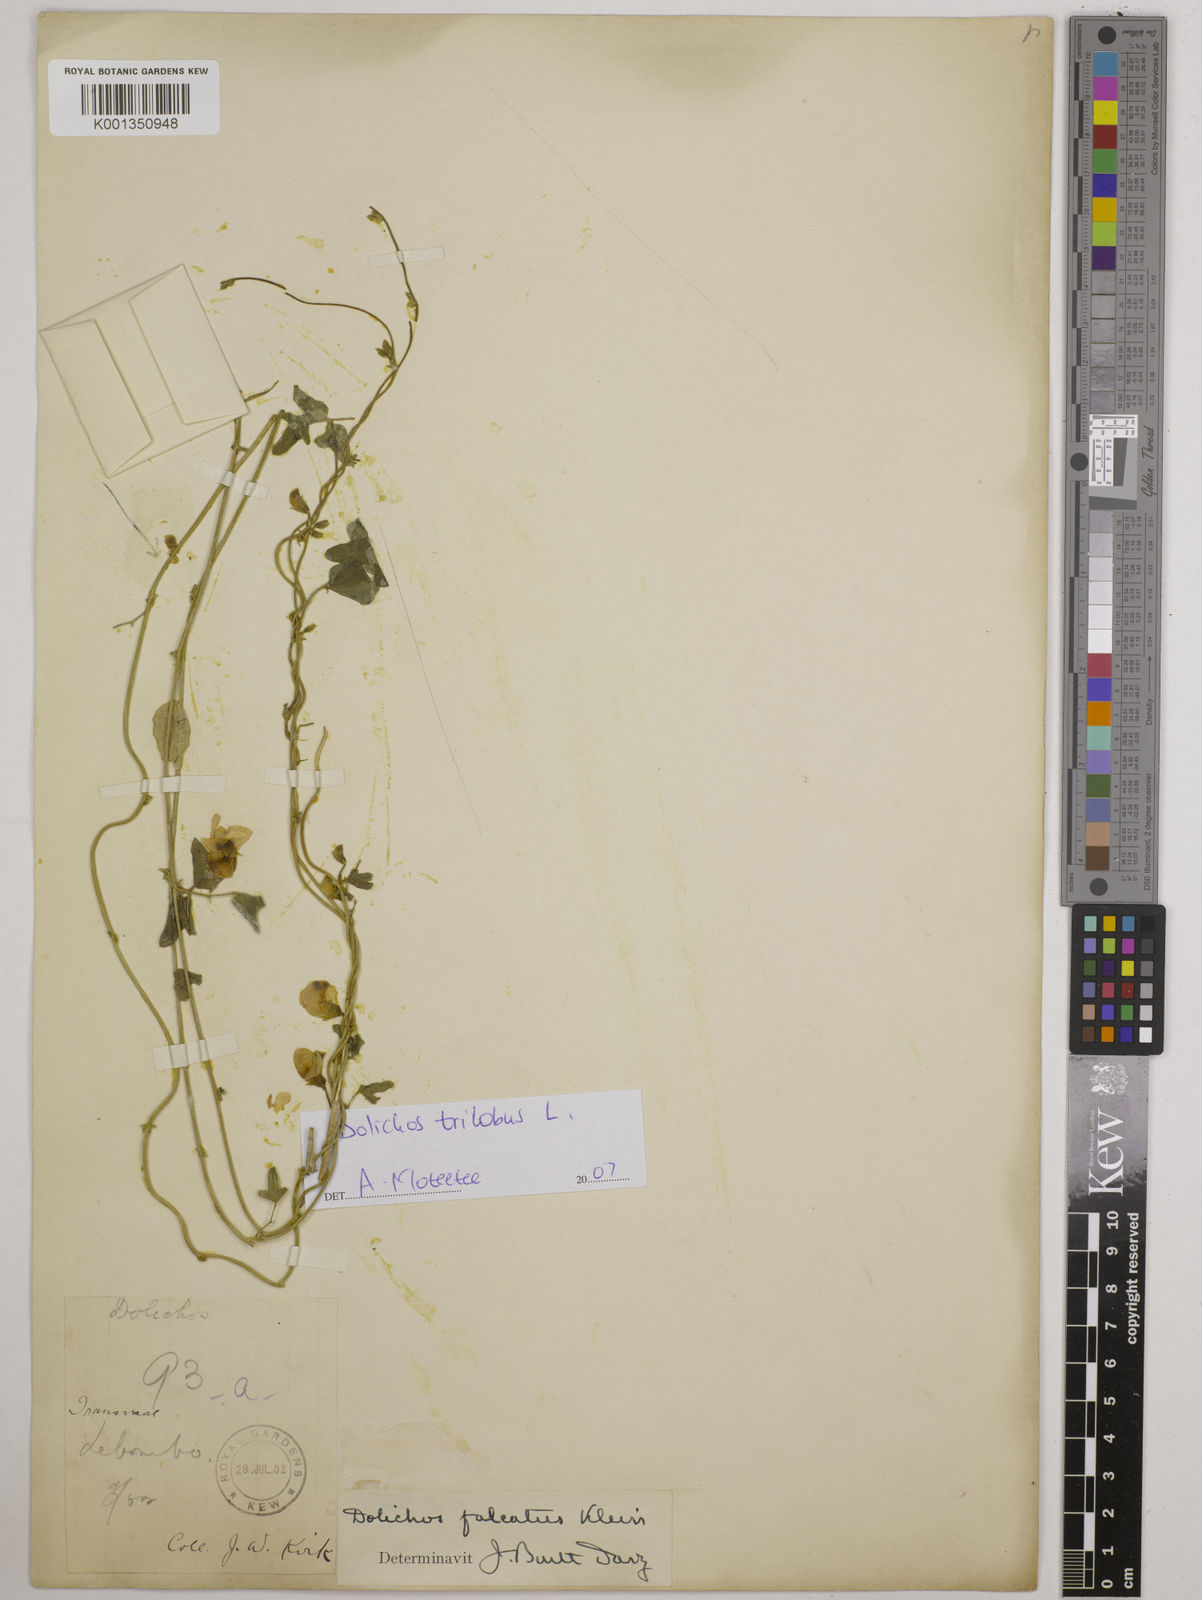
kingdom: Plantae
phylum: Tracheophyta
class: Magnoliopsida
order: Fabales
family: Fabaceae
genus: Dolichos
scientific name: Dolichos
